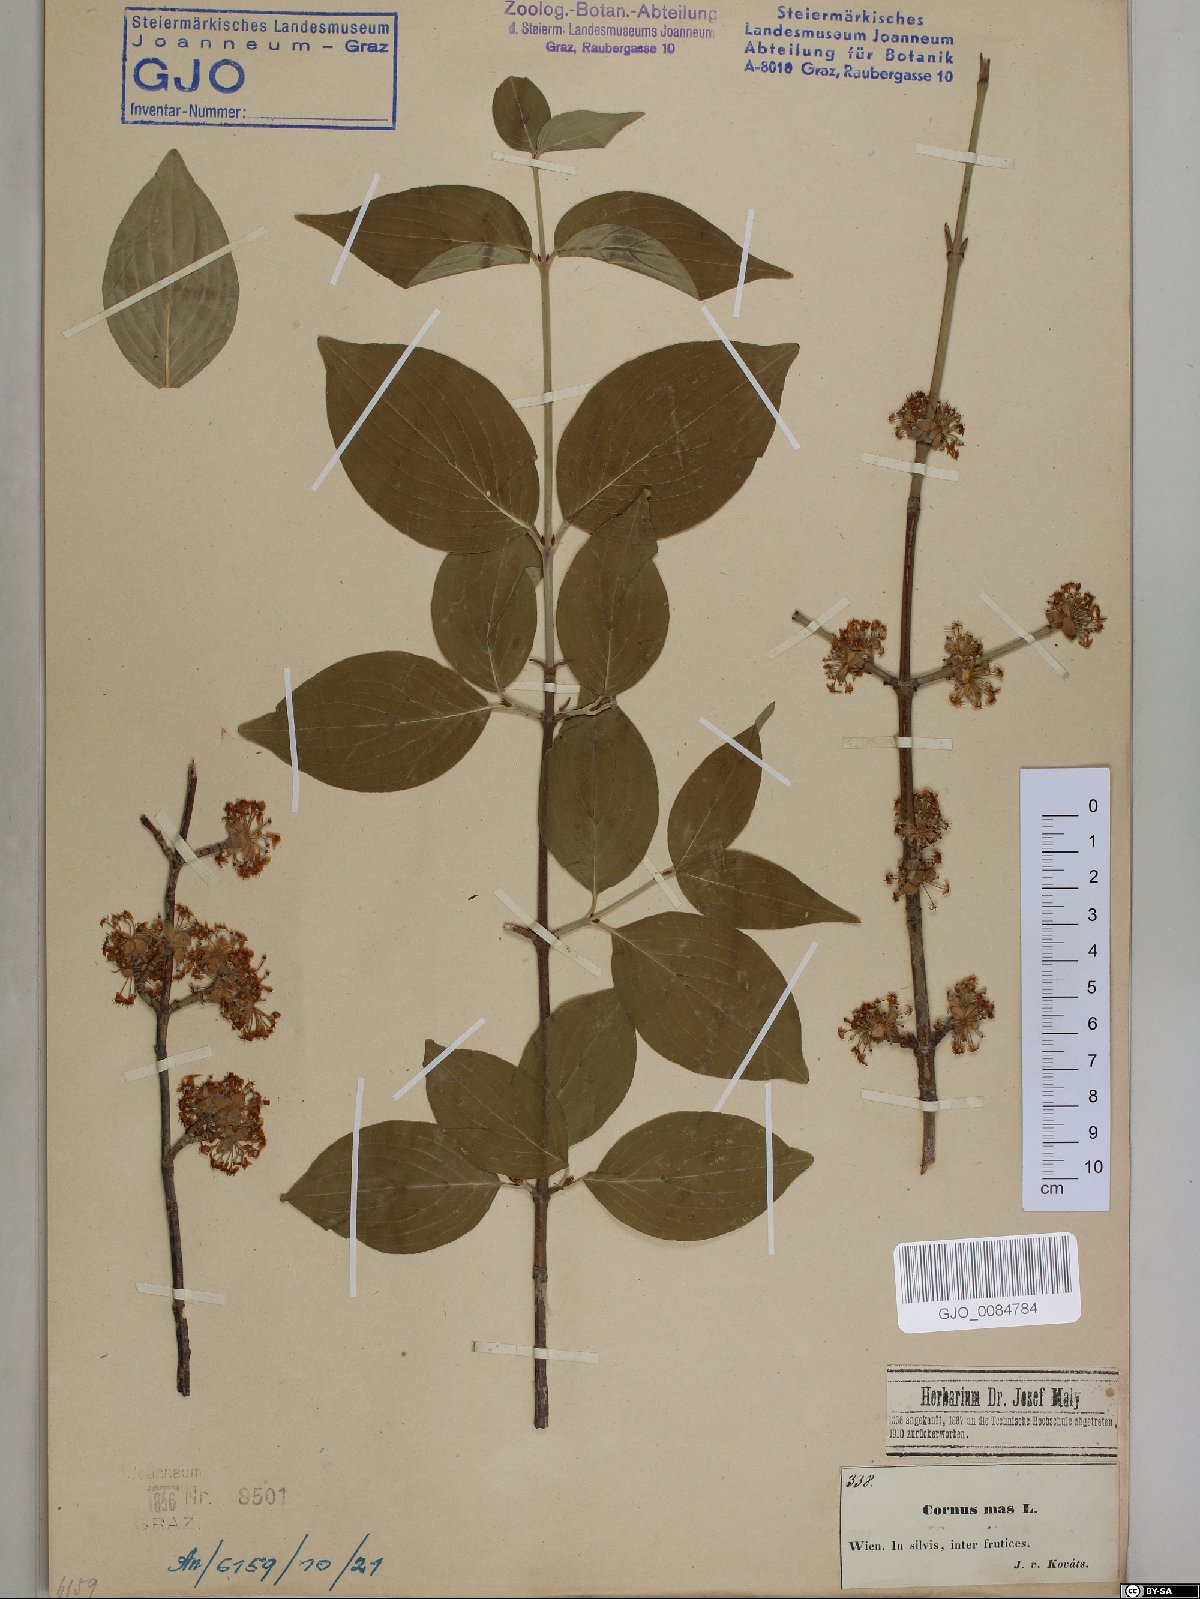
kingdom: Plantae
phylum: Tracheophyta
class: Magnoliopsida
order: Cornales
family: Cornaceae
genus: Cornus
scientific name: Cornus mas
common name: Cornelian-cherry
